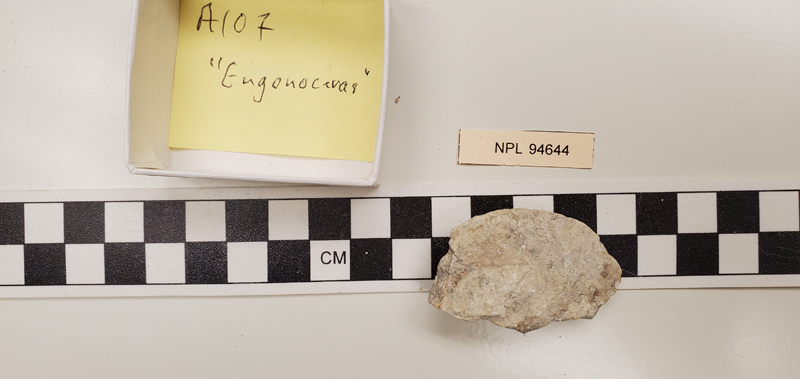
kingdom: Animalia
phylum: Mollusca
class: Cephalopoda
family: Engonoceratidae
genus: Engonoceras
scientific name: Engonoceras
